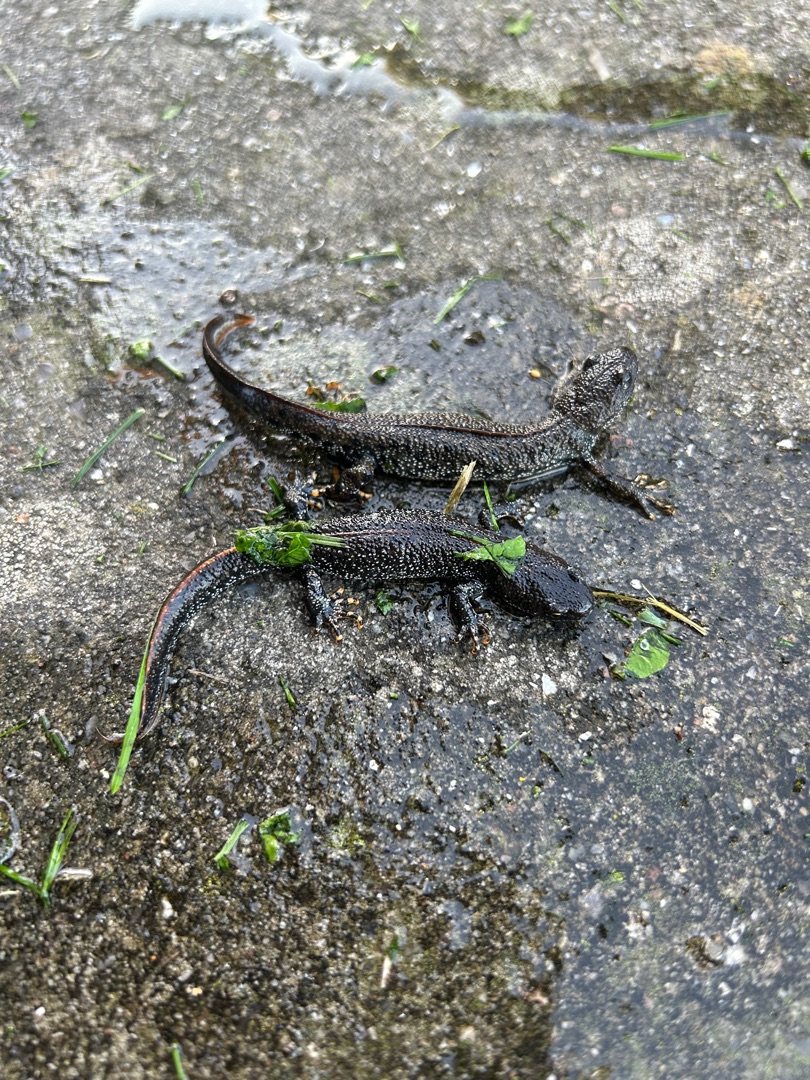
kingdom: Animalia
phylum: Chordata
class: Amphibia
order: Caudata
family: Salamandridae
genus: Triturus
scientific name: Triturus cristatus
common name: Stor vandsalamander
